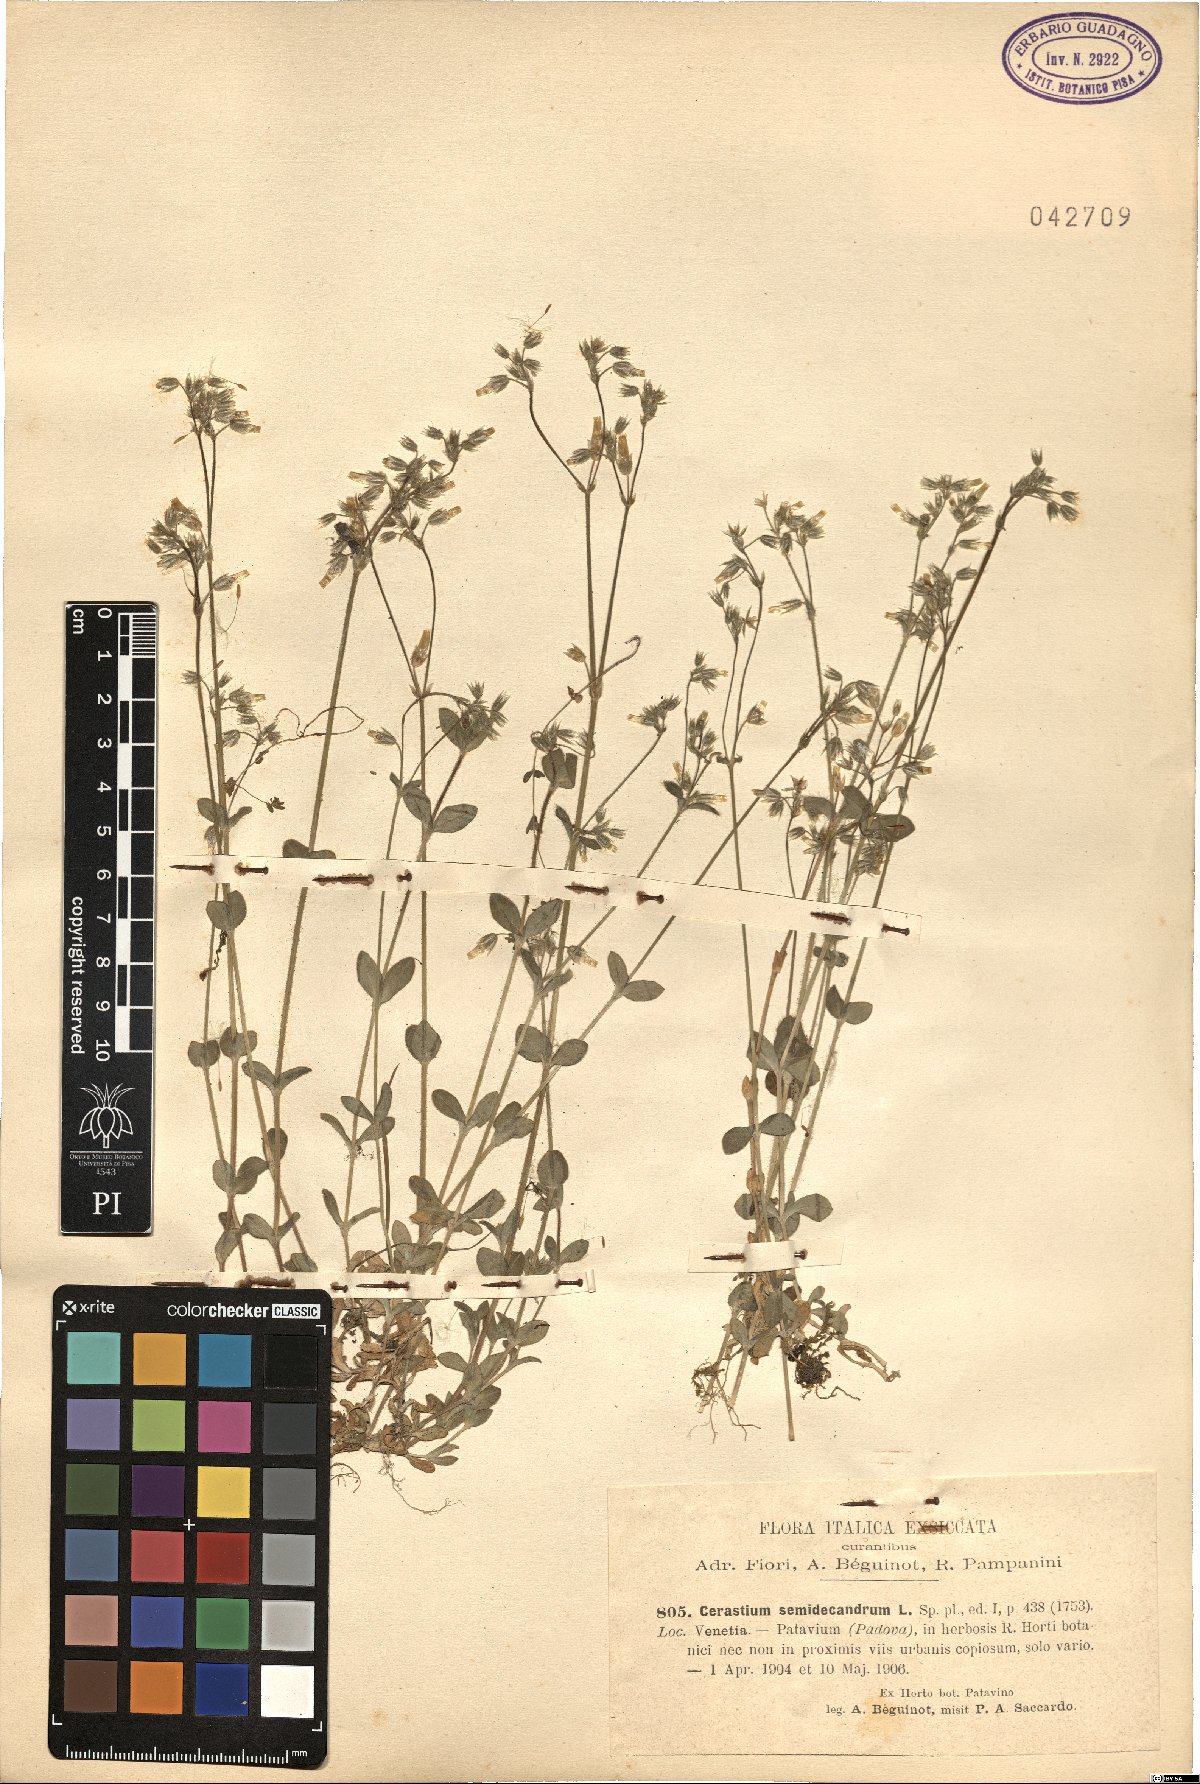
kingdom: Plantae
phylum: Tracheophyta
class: Magnoliopsida
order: Caryophyllales
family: Caryophyllaceae
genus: Cerastium
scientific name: Cerastium semidecandrum
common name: Little mouse-ear
